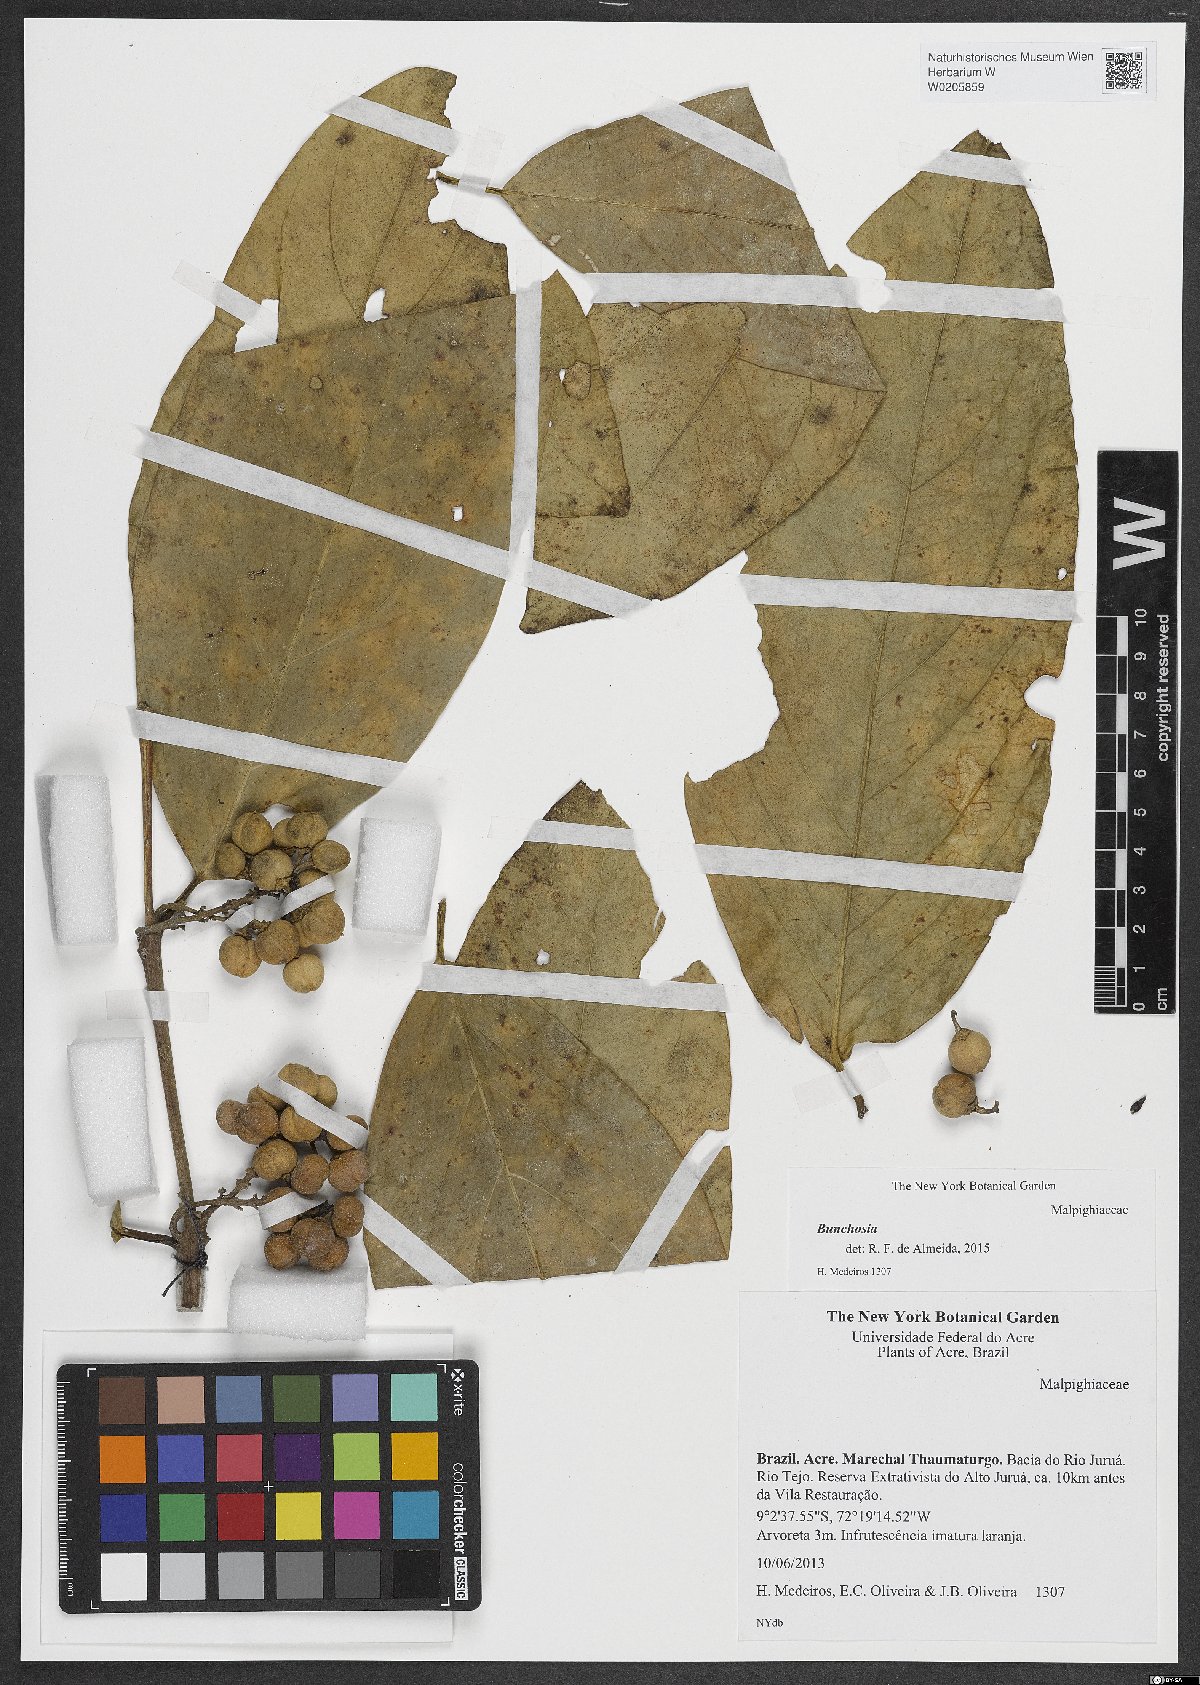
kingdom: Plantae
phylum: Tracheophyta
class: Magnoliopsida
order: Malpighiales
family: Malpighiaceae
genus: Bunchosia
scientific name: Bunchosia
